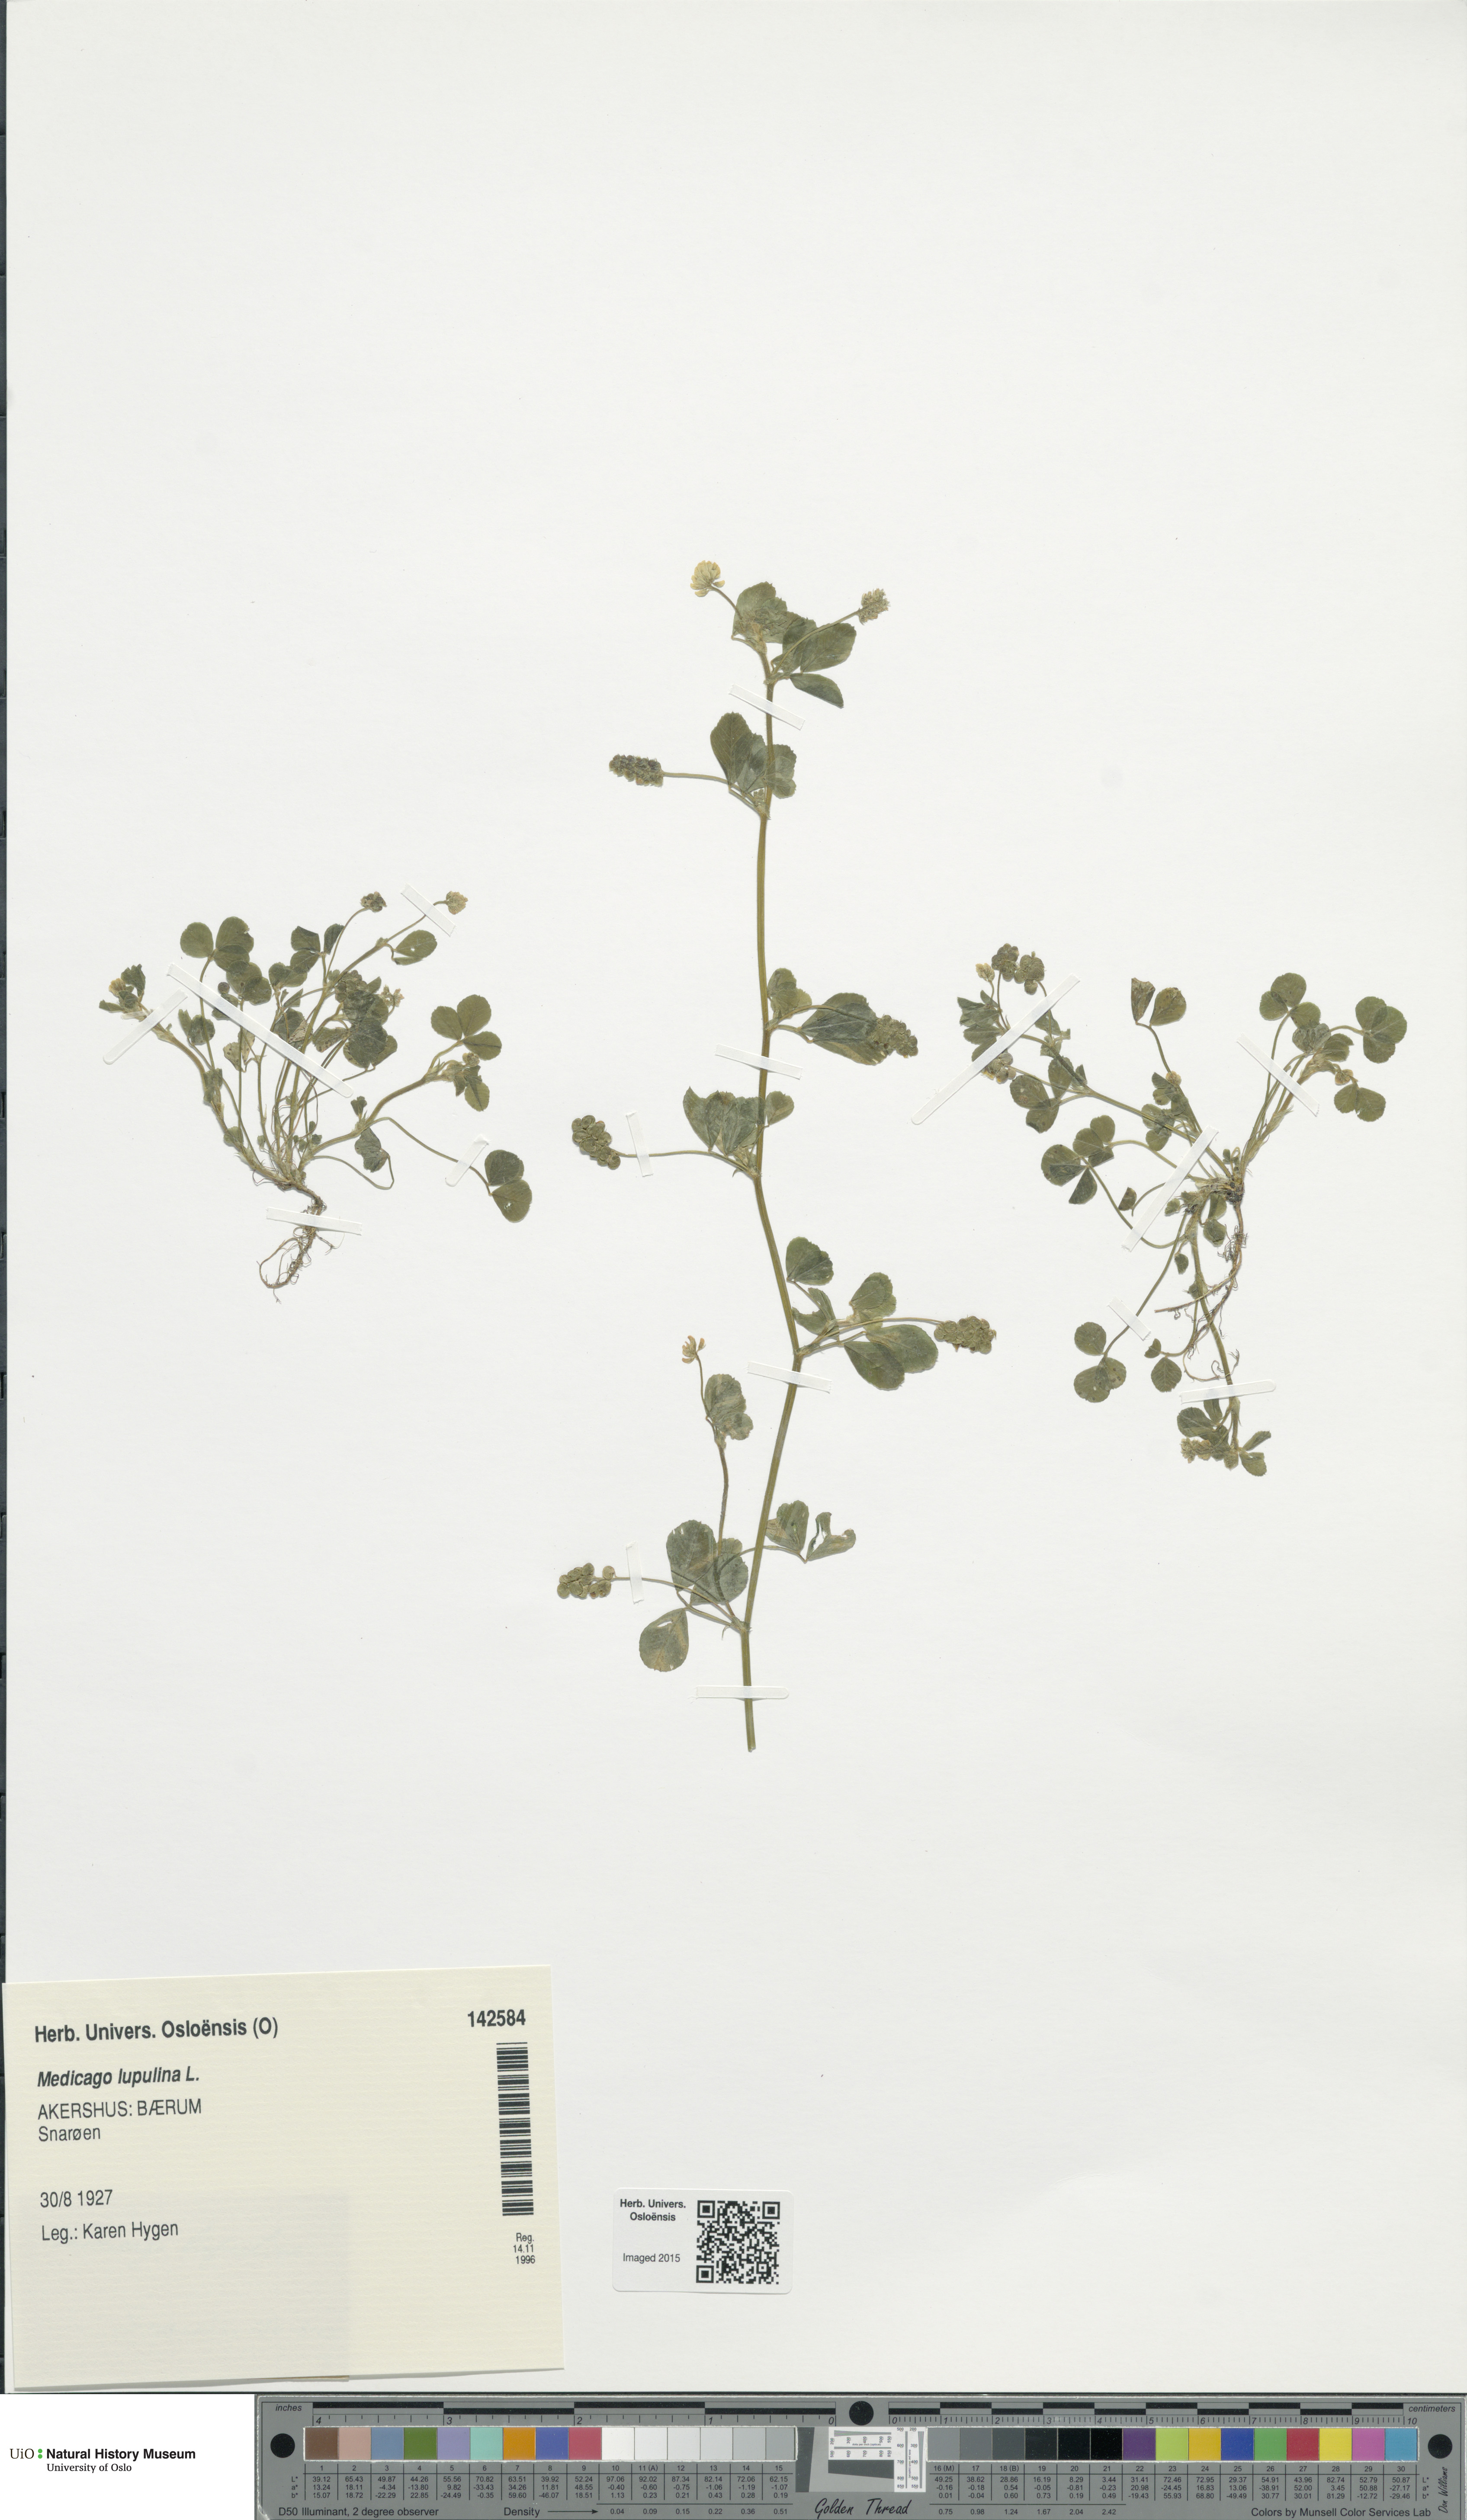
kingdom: Plantae
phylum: Tracheophyta
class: Magnoliopsida
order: Fabales
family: Fabaceae
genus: Medicago
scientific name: Medicago lupulina
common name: Black medick
